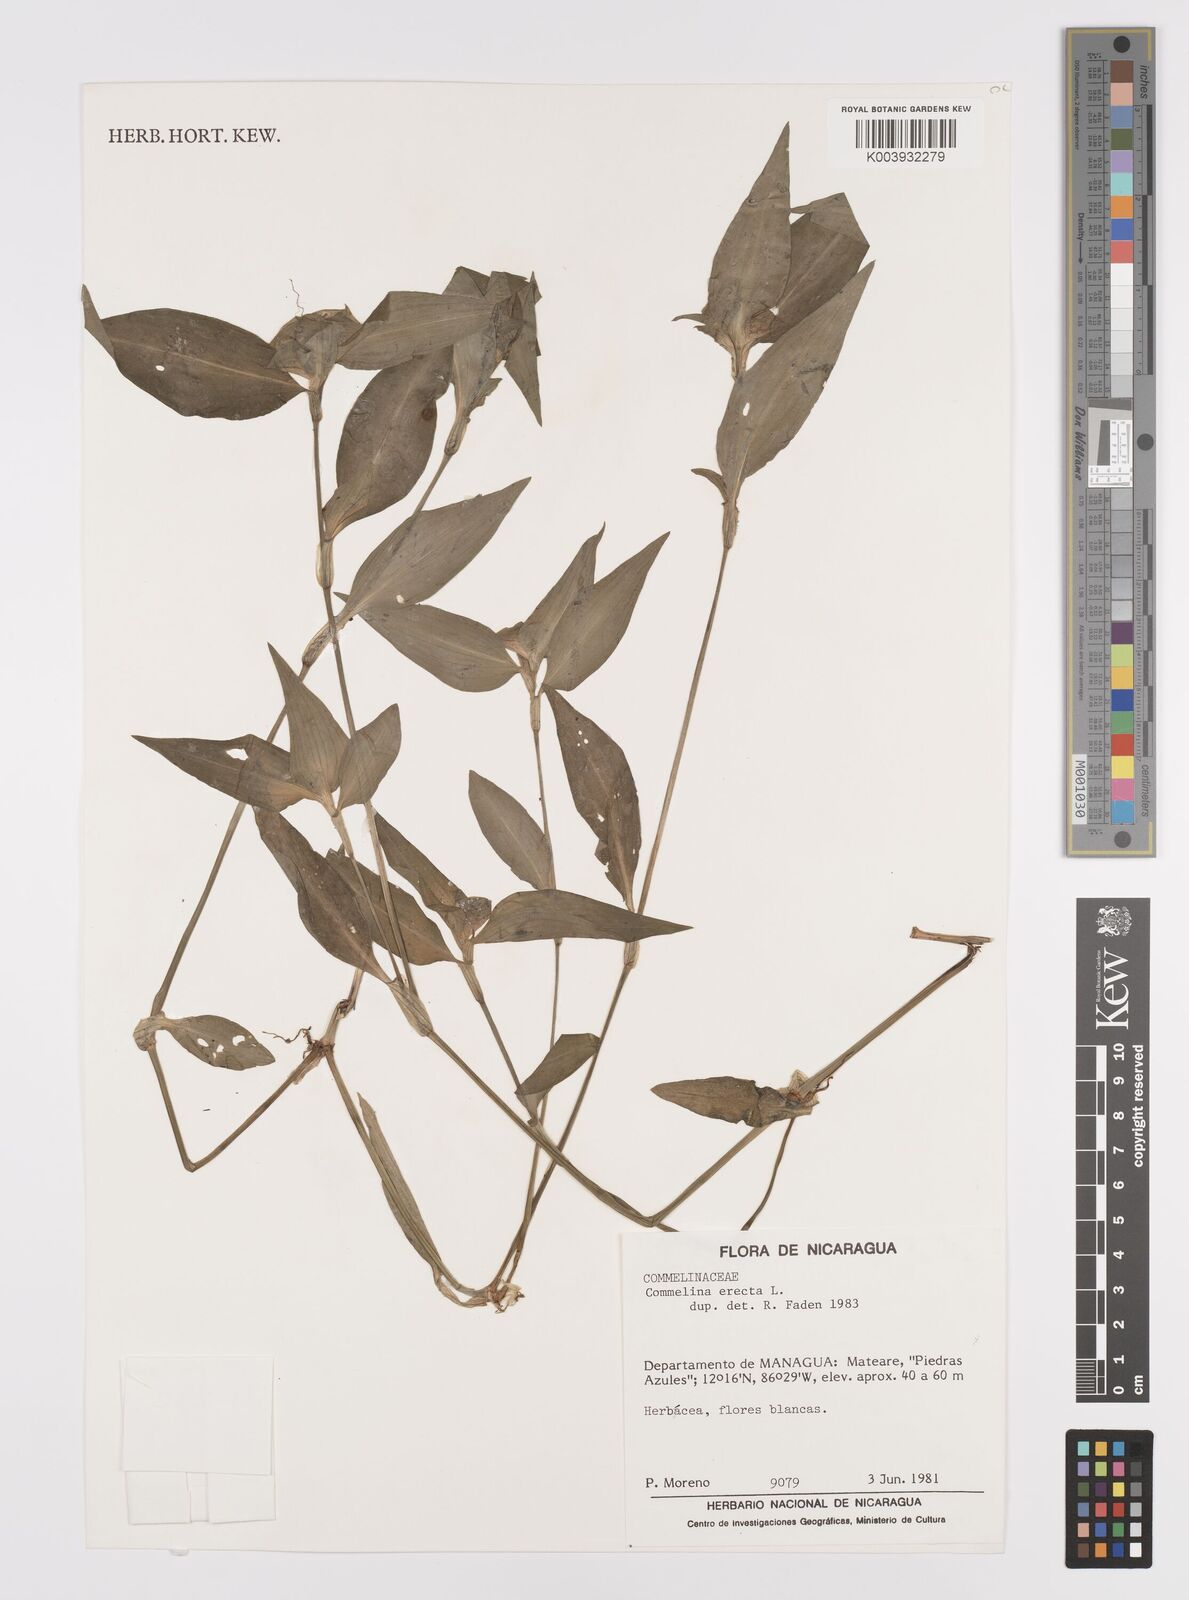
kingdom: Plantae
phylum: Tracheophyta
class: Liliopsida
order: Commelinales
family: Commelinaceae
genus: Commelina
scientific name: Commelina erecta
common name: Blousel blommetjie
